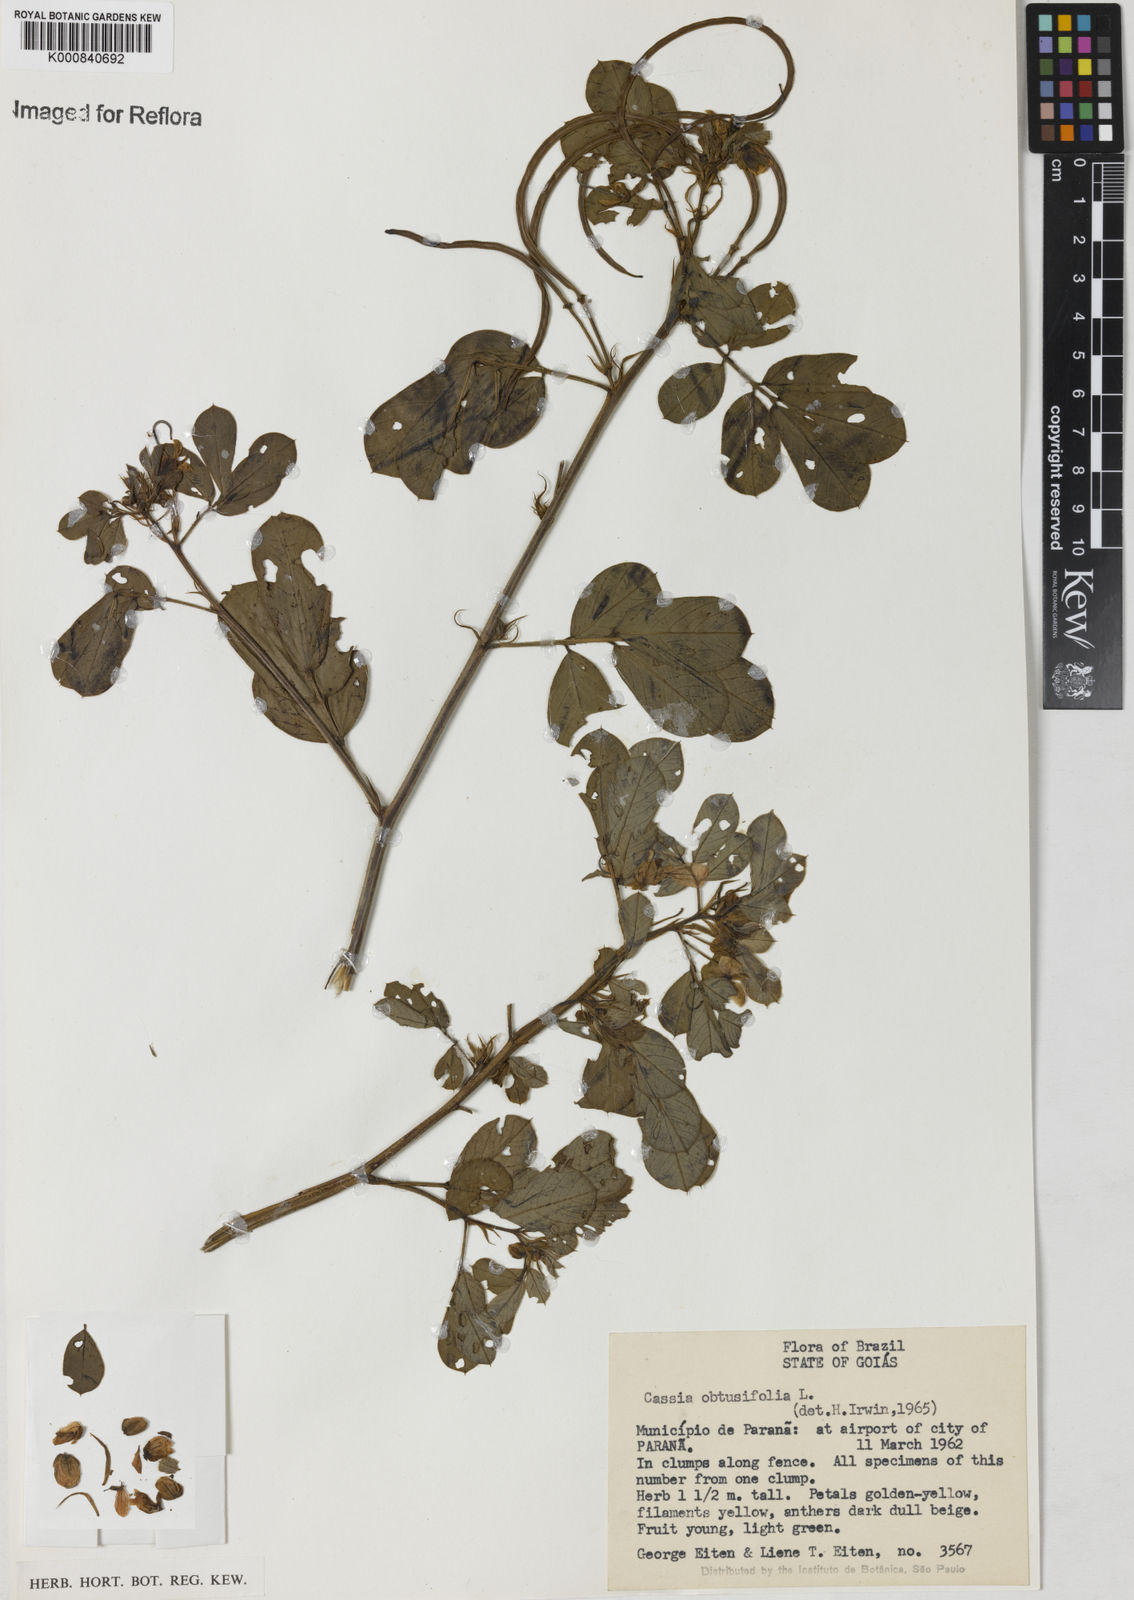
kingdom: Plantae
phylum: Tracheophyta
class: Magnoliopsida
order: Fabales
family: Fabaceae
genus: Senna
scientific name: Senna obtusifolia
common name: Java-bean
